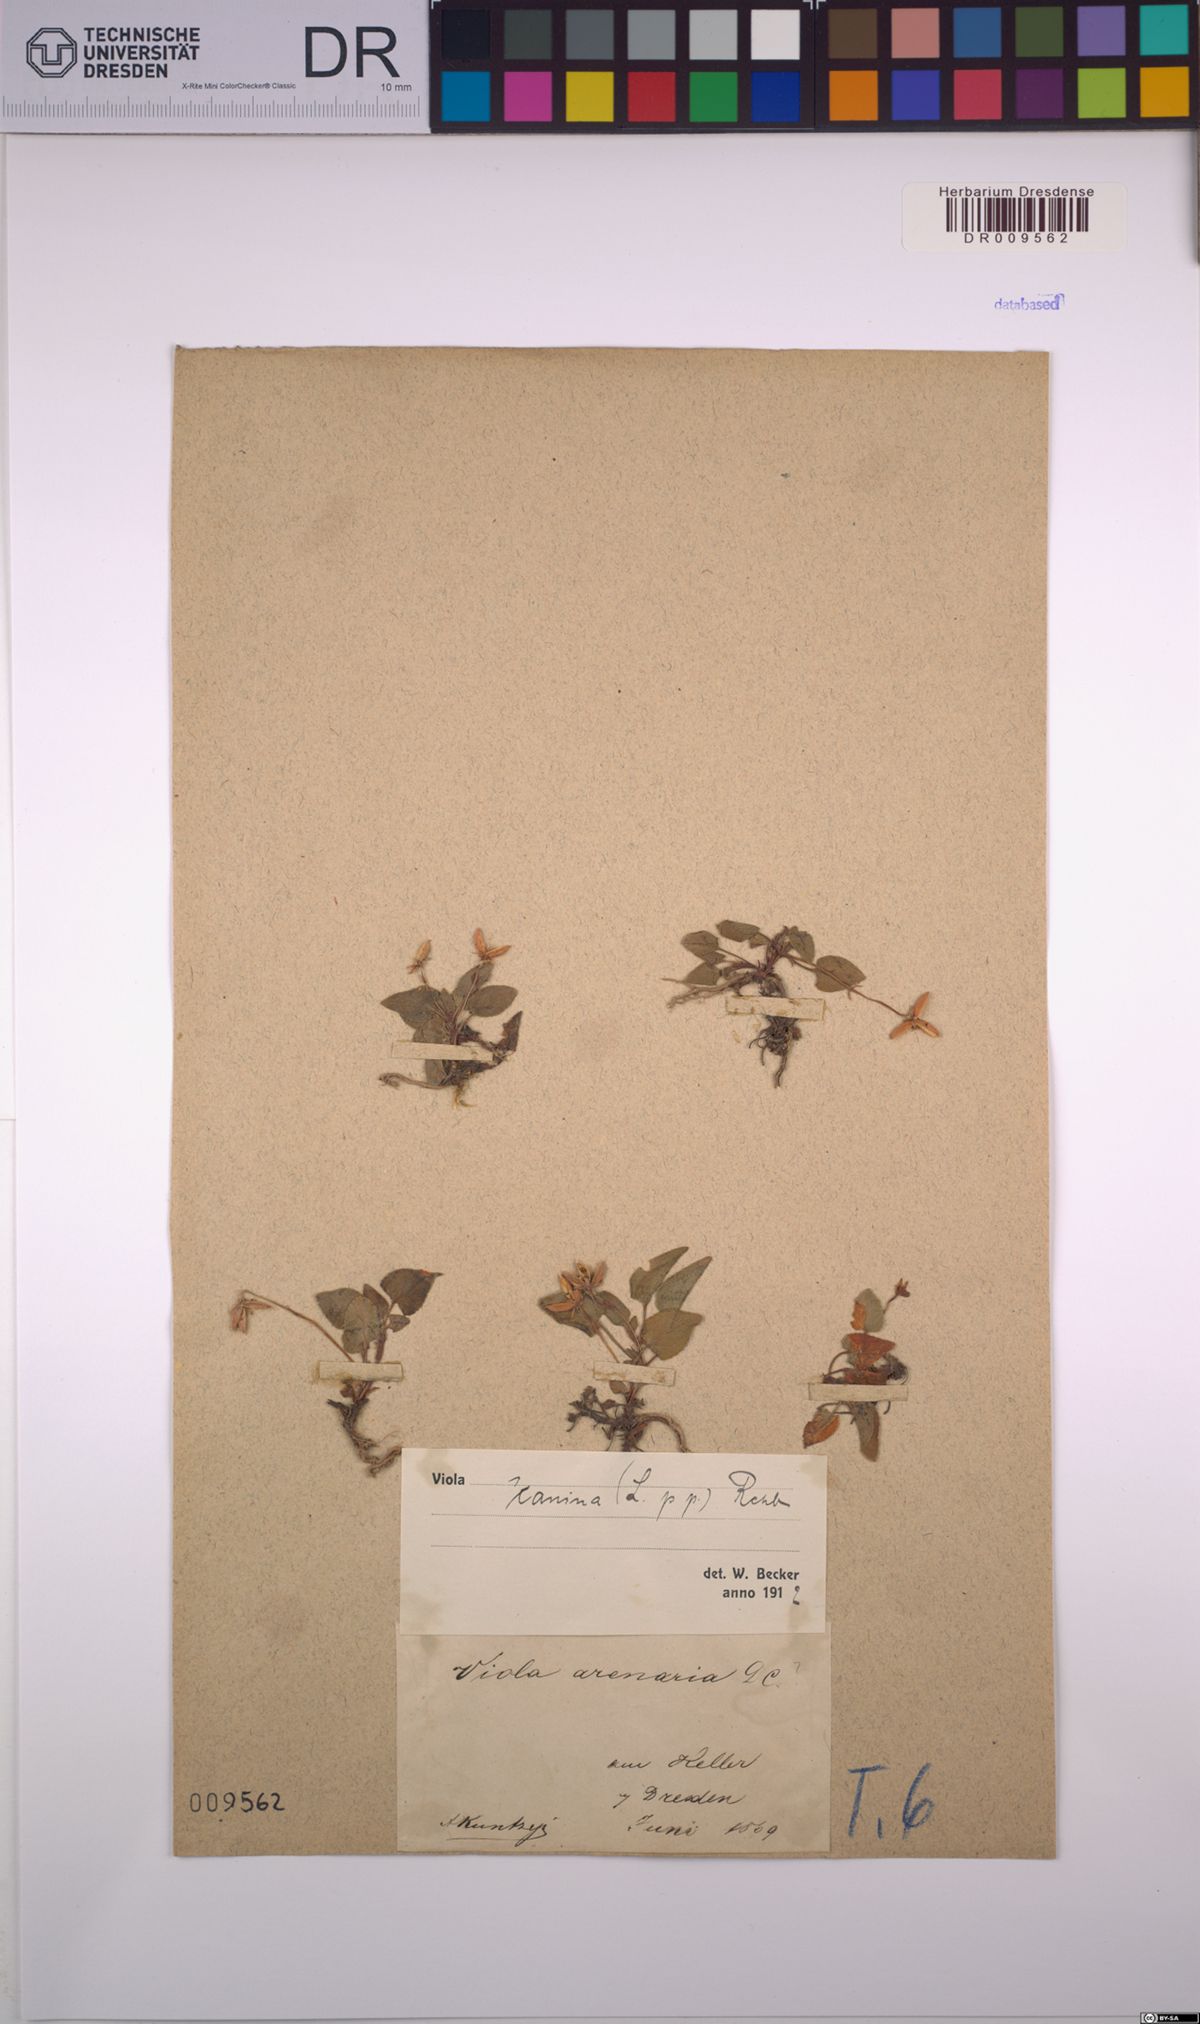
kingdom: Plantae
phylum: Tracheophyta
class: Magnoliopsida
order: Malpighiales
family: Violaceae
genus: Viola
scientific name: Viola canina
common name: Heath dog-violet
